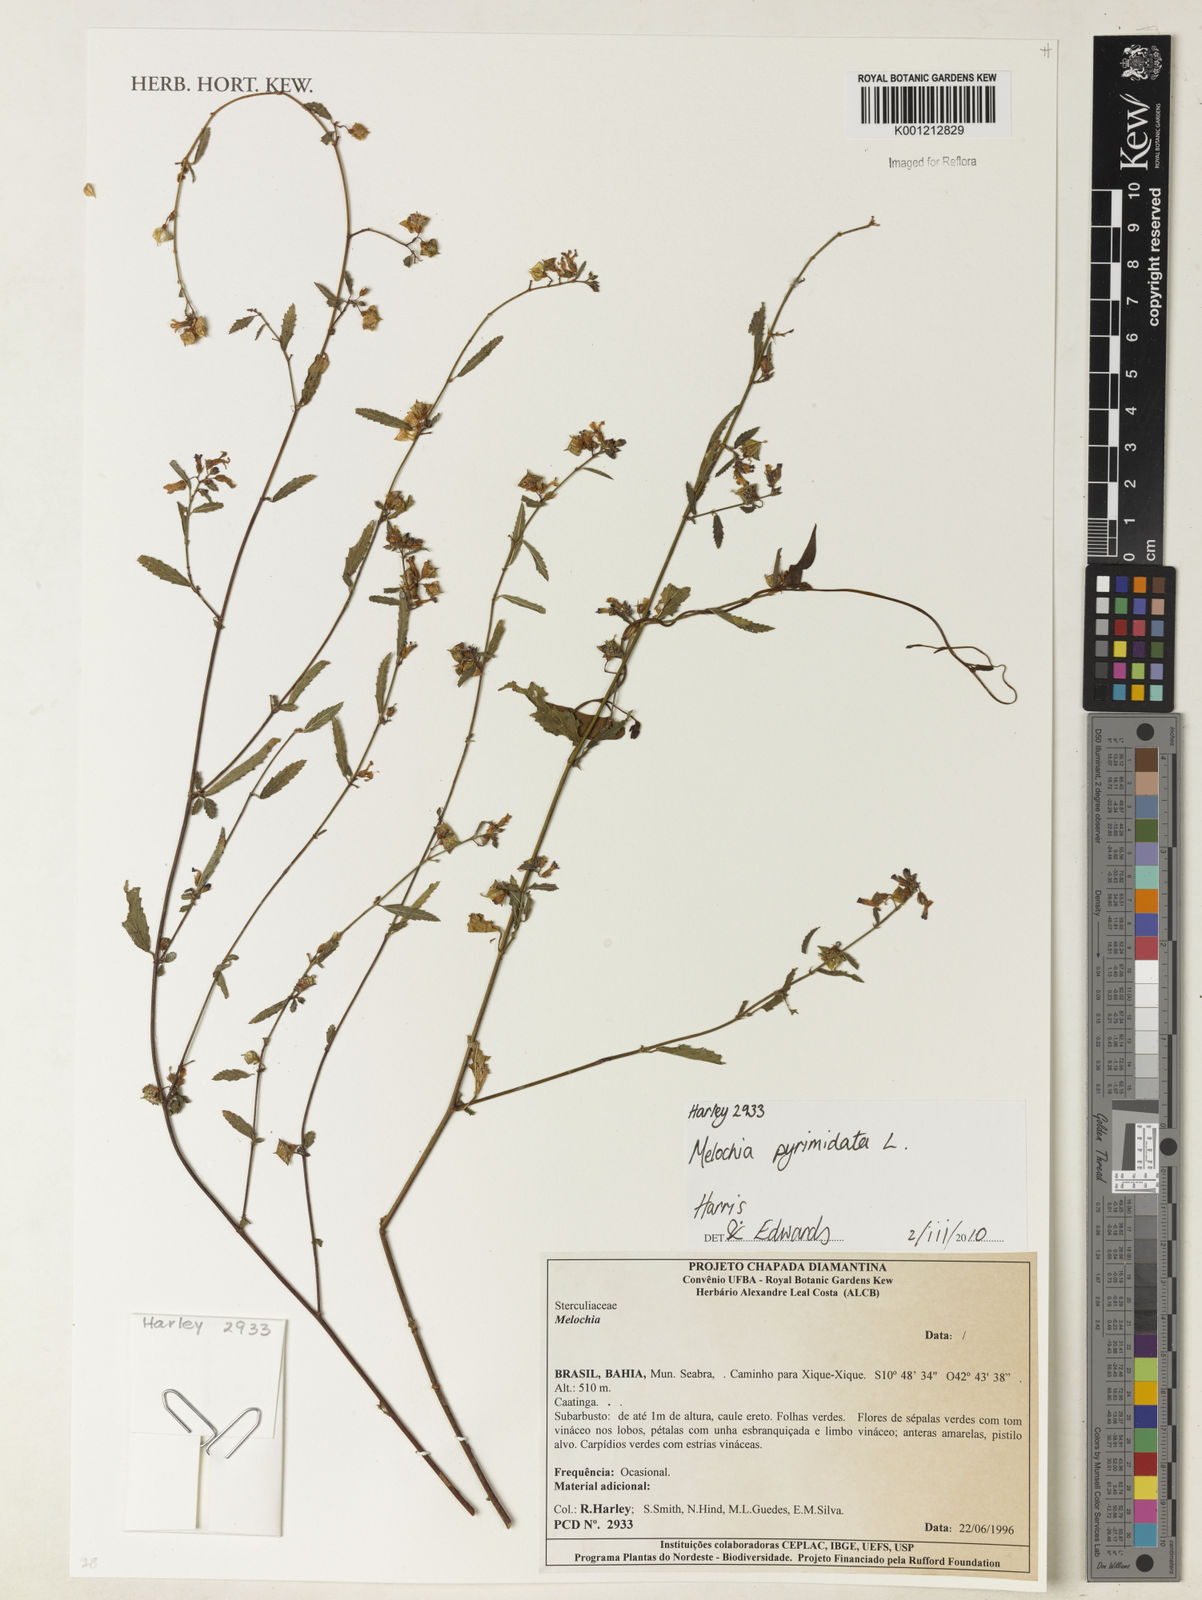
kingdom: Plantae
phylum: Tracheophyta
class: Magnoliopsida
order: Malvales
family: Malvaceae
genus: Melochia
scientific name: Melochia pyramidata
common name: Pyramidflower
